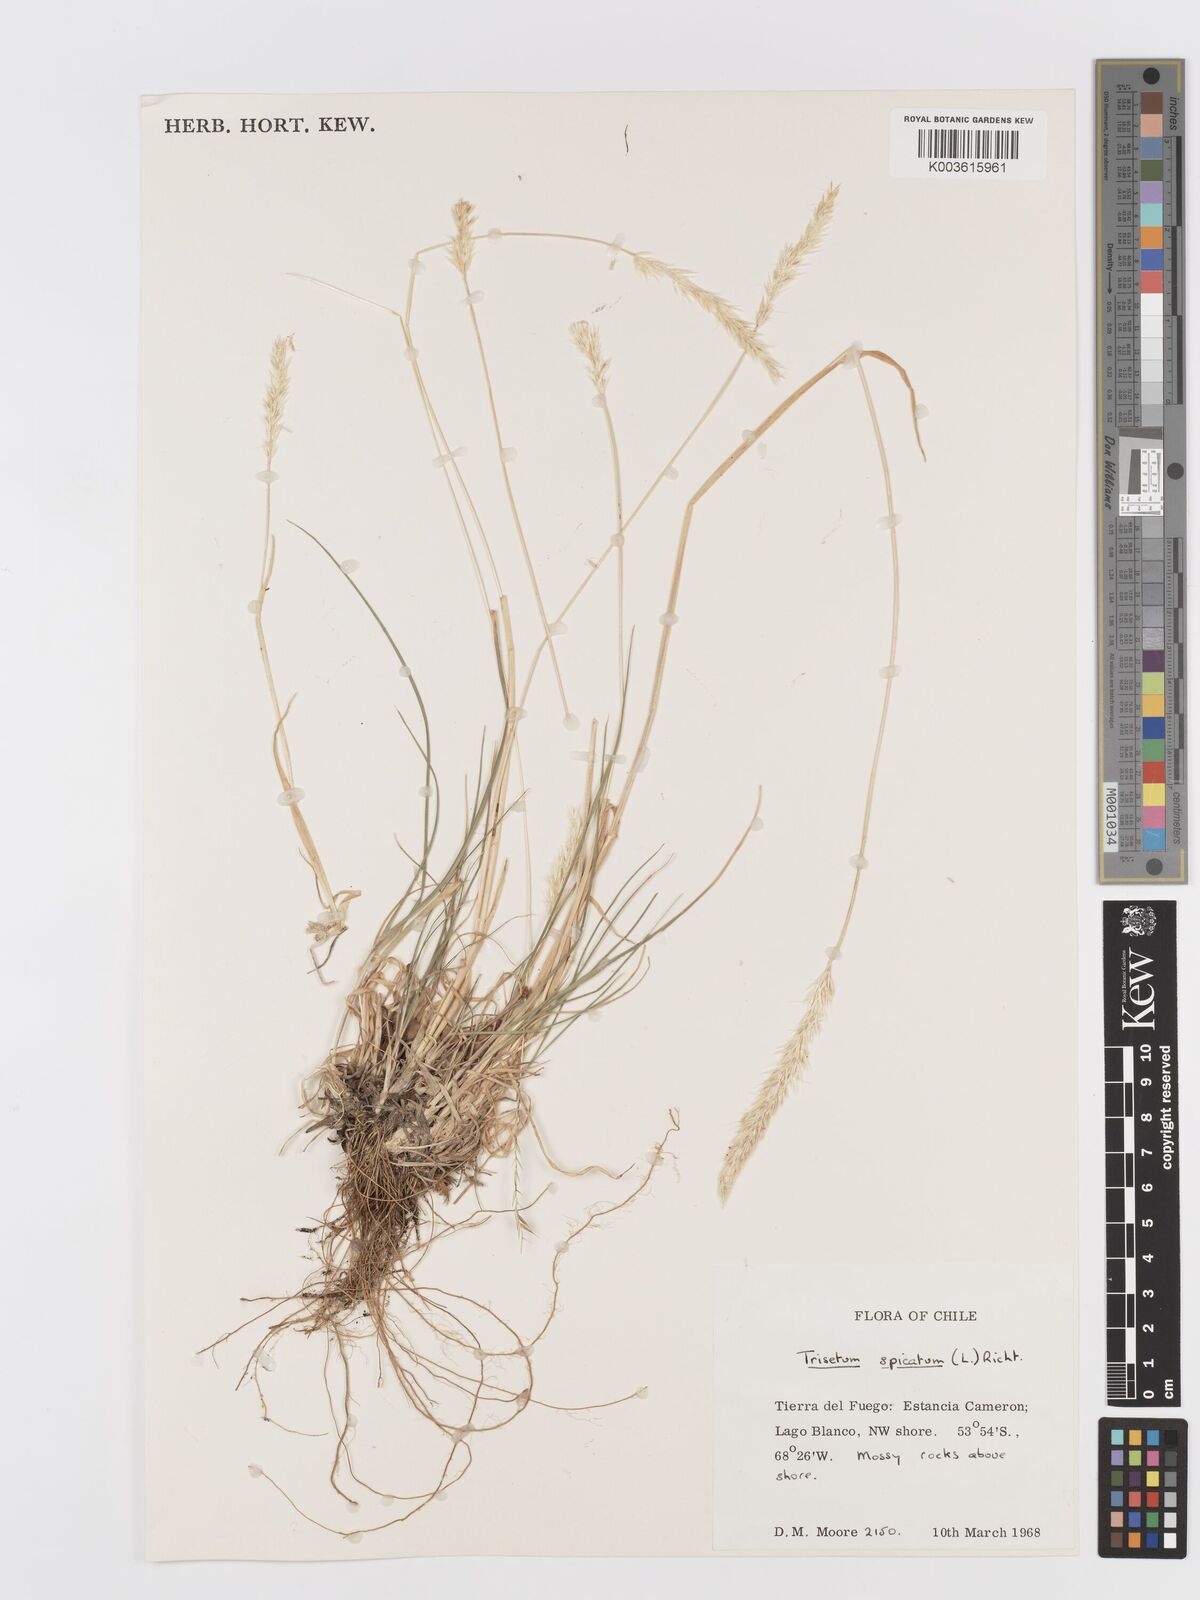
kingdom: Plantae
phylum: Tracheophyta
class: Liliopsida
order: Poales
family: Poaceae
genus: Koeleria
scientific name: Koeleria spicata
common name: Mountain trisetum
